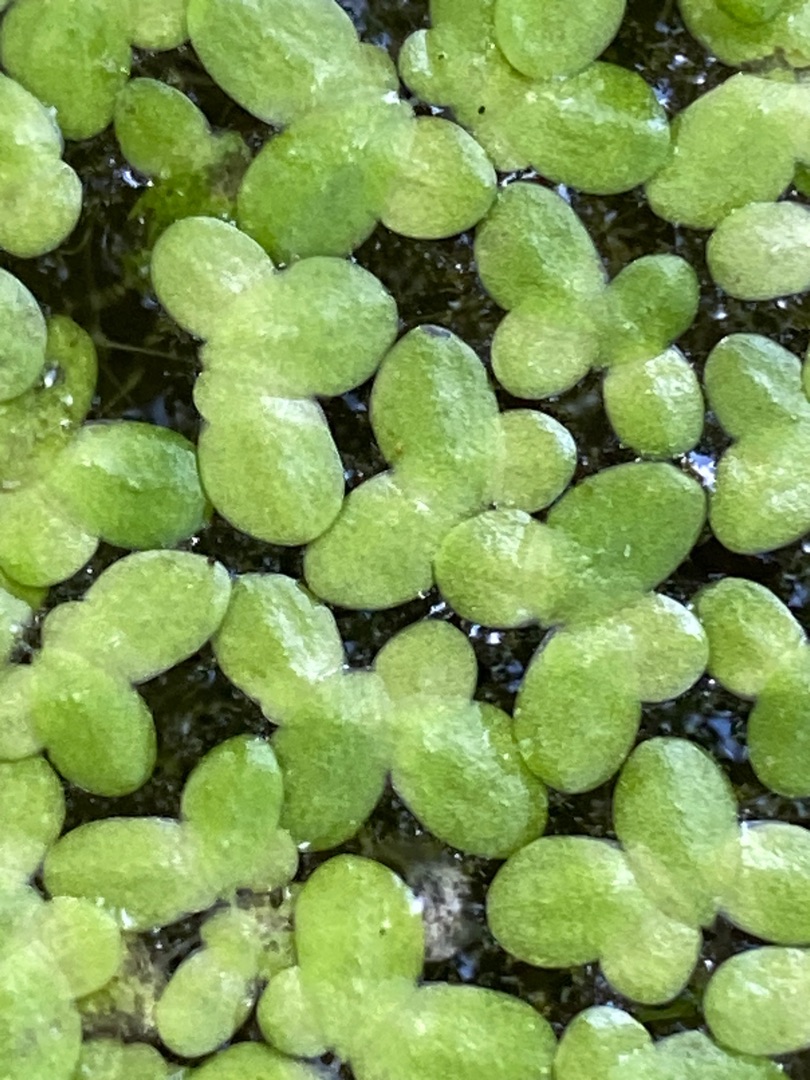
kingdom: Plantae
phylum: Tracheophyta
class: Liliopsida
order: Alismatales
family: Araceae
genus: Lemna
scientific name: Lemna minor
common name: Liden andemad
